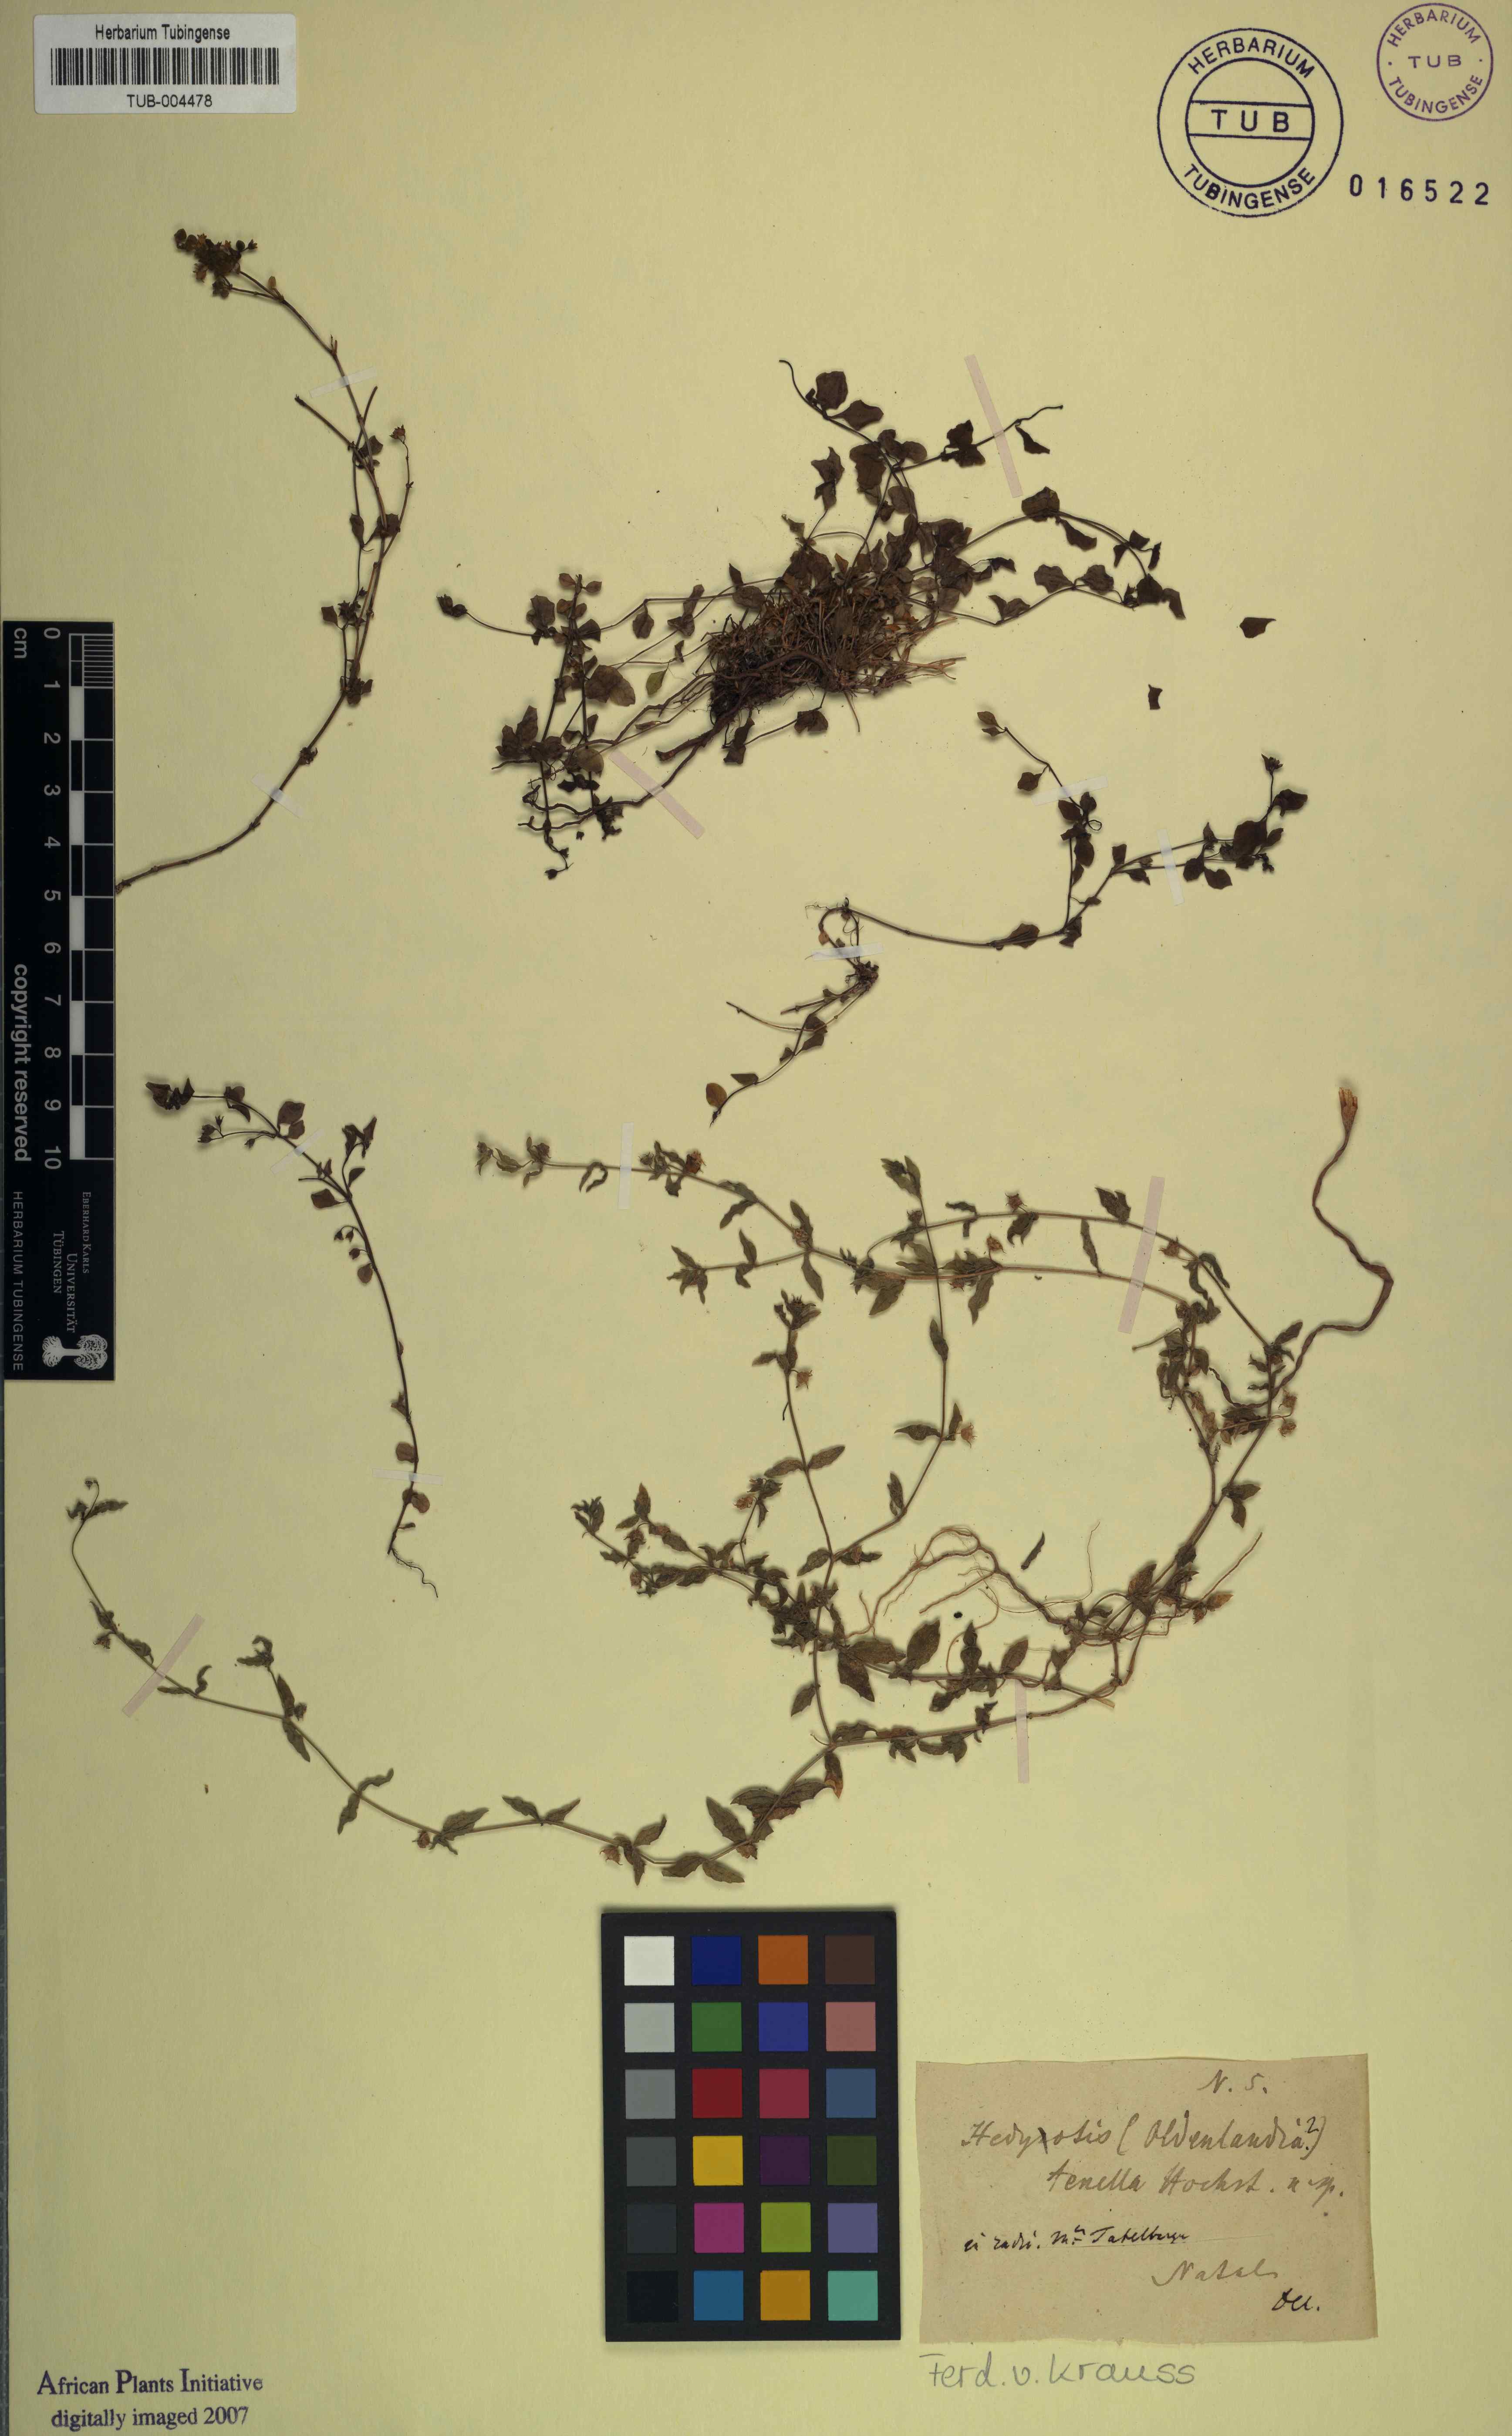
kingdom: Plantae
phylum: Tracheophyta
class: Magnoliopsida
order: Gentianales
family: Rubiaceae
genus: Oldenlandia
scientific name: Oldenlandia tenella
